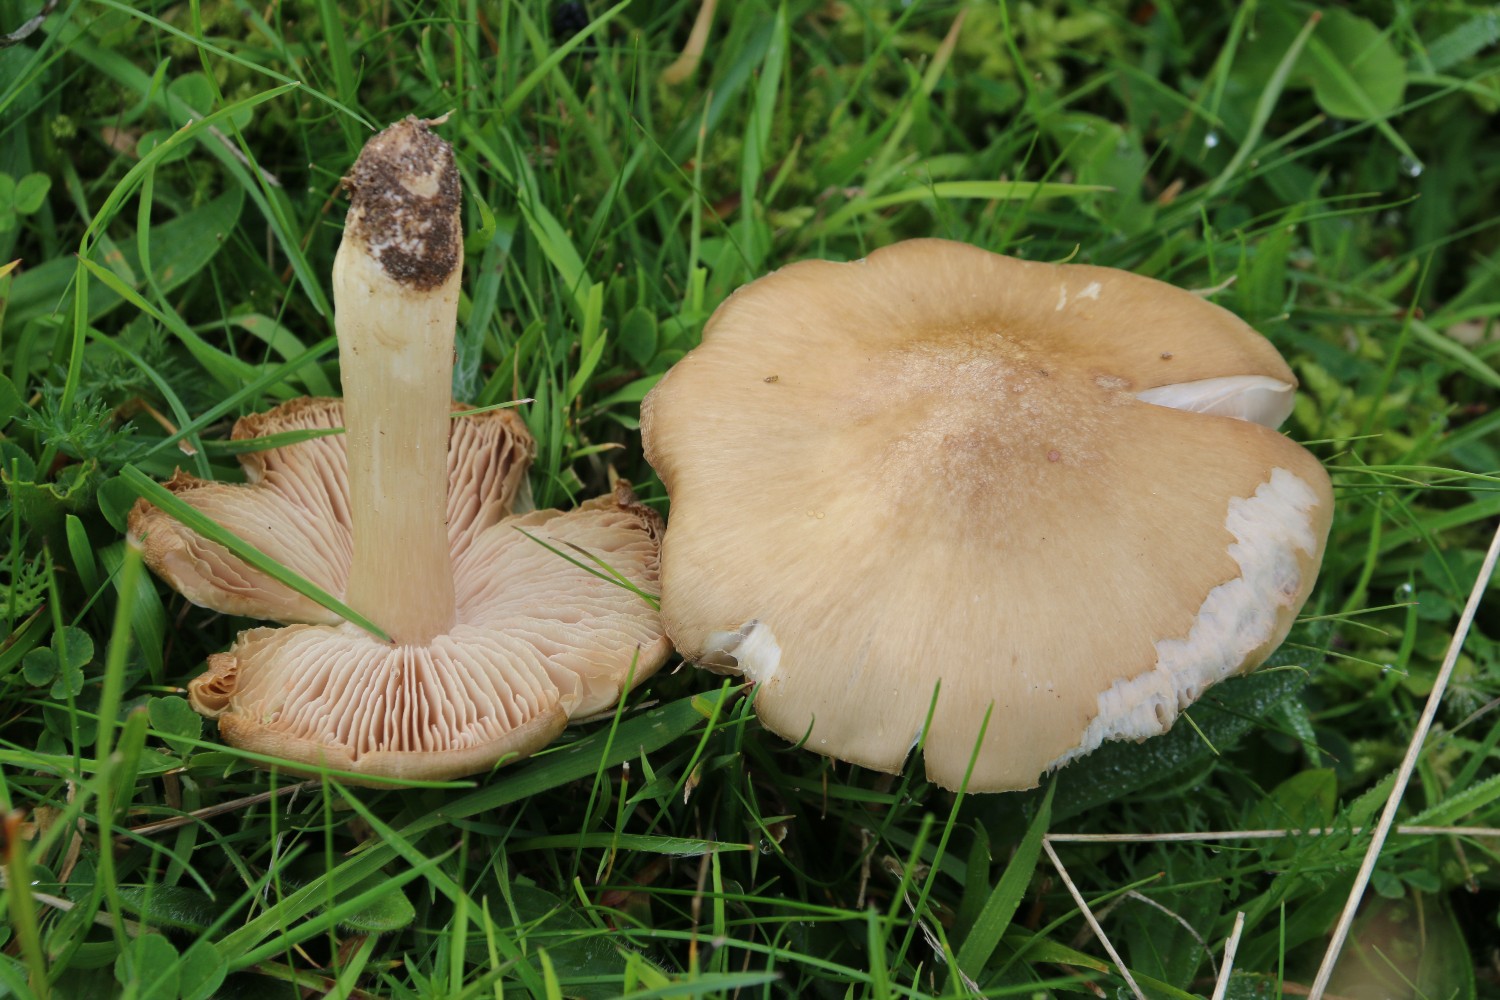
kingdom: Fungi
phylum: Basidiomycota
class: Agaricomycetes
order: Agaricales
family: Entolomataceae
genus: Entoloma
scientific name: Entoloma prunuloides
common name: mel-rødblad
